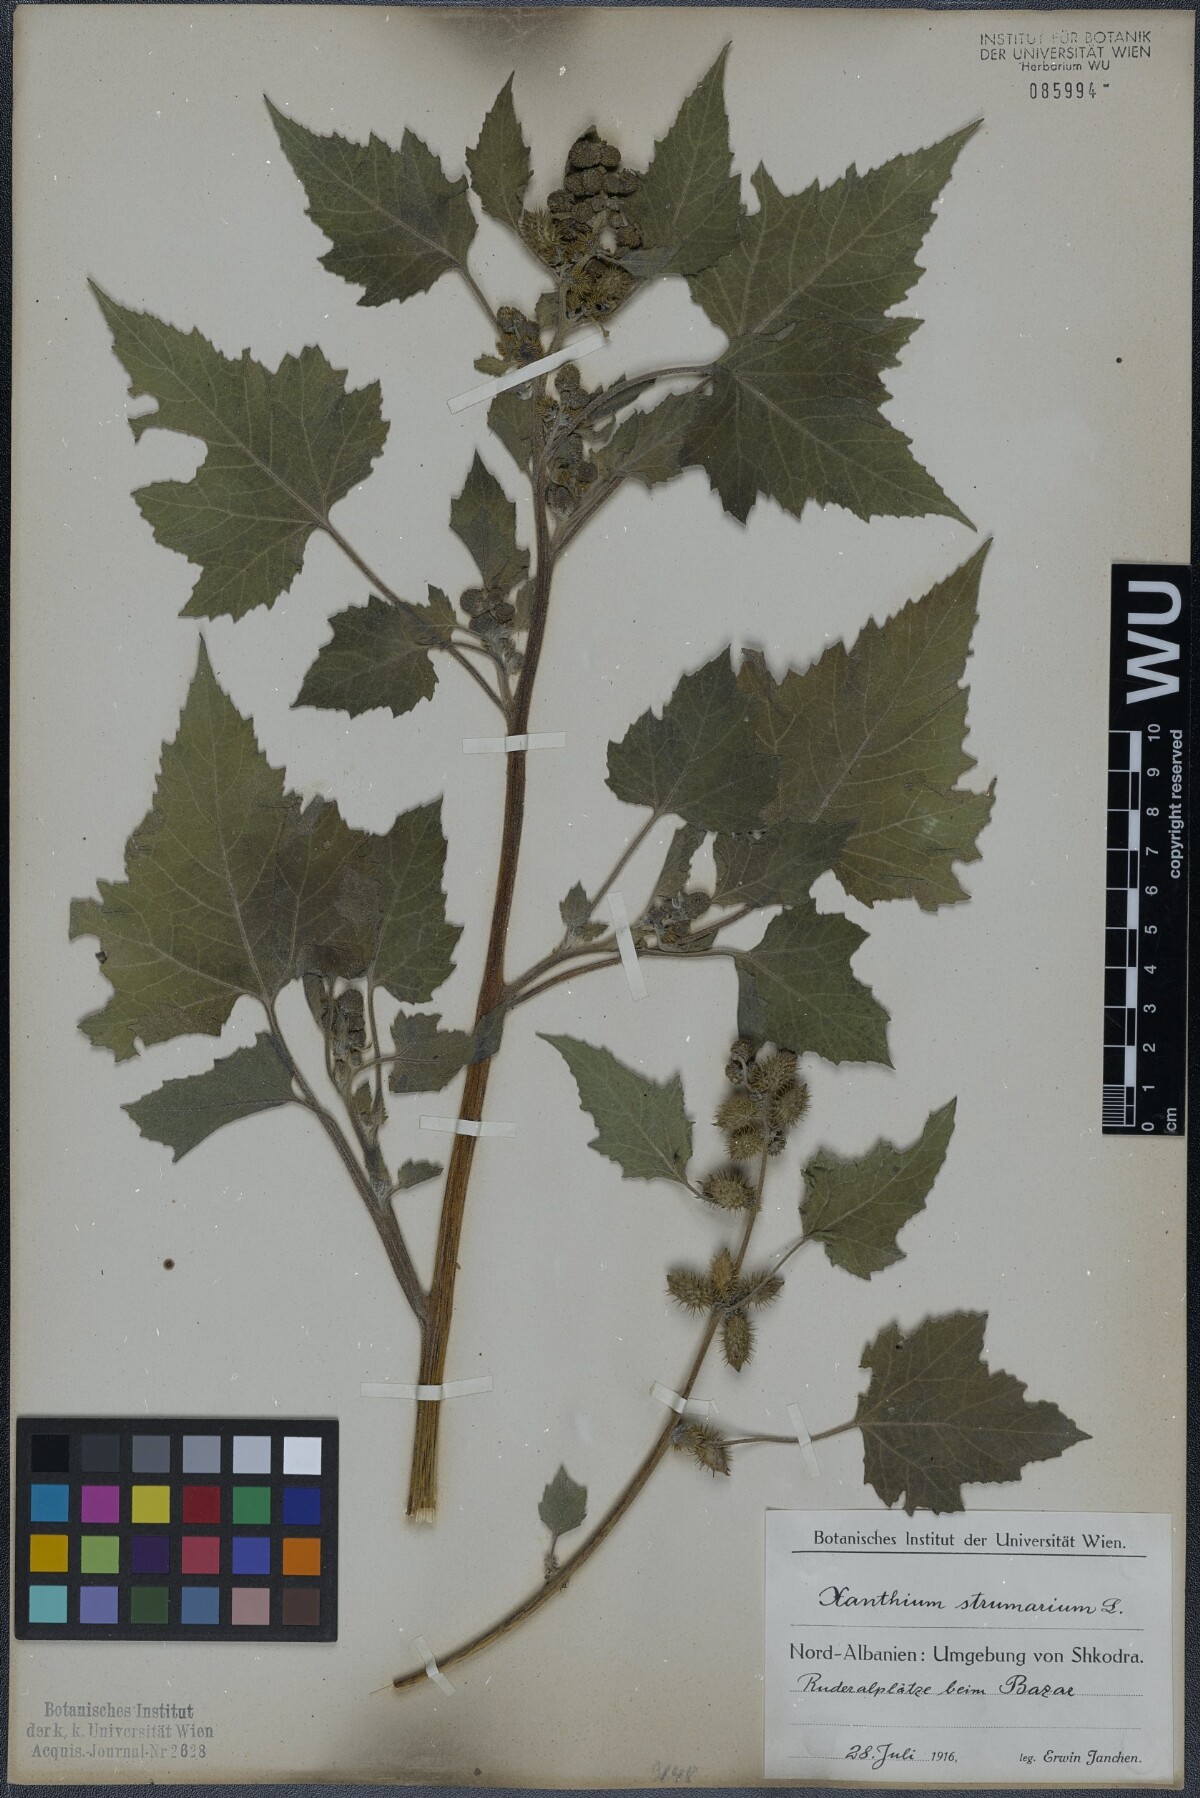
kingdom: Plantae
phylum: Tracheophyta
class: Magnoliopsida
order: Asterales
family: Asteraceae
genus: Xanthium
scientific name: Xanthium strumarium
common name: Rough cocklebur
